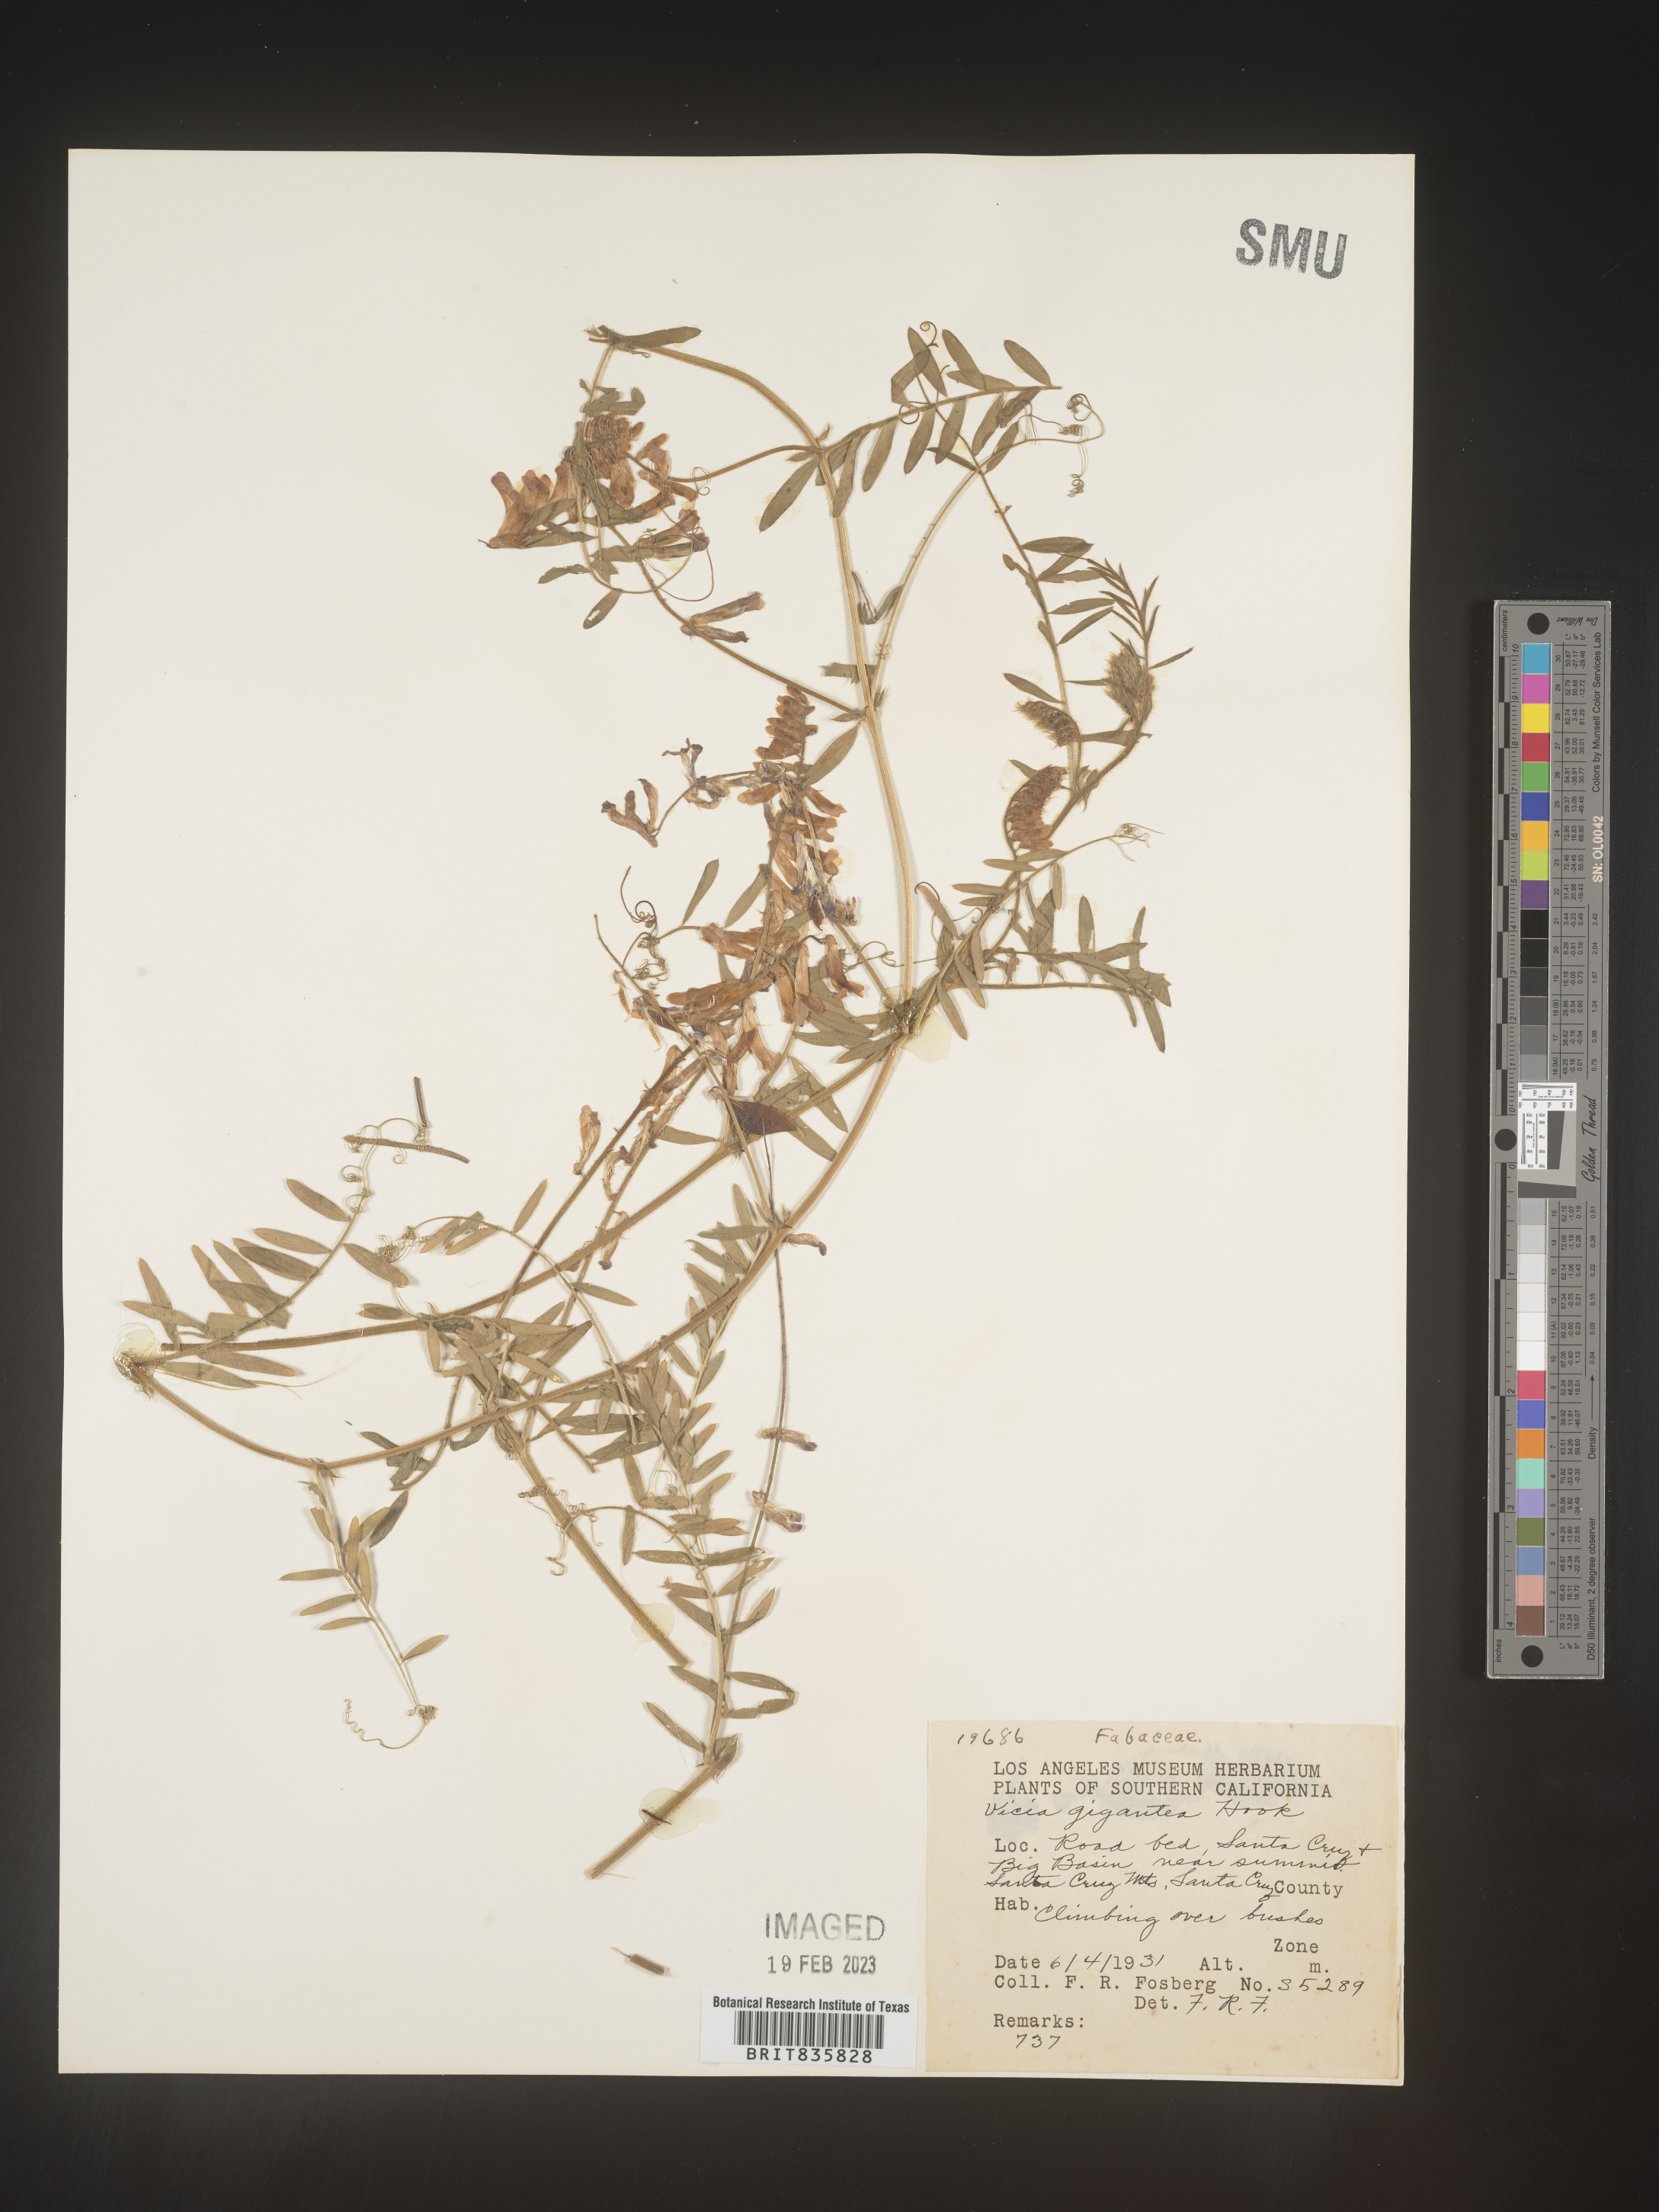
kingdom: Plantae
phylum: Tracheophyta
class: Magnoliopsida
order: Fabales
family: Fabaceae
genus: Vicia
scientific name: Vicia
